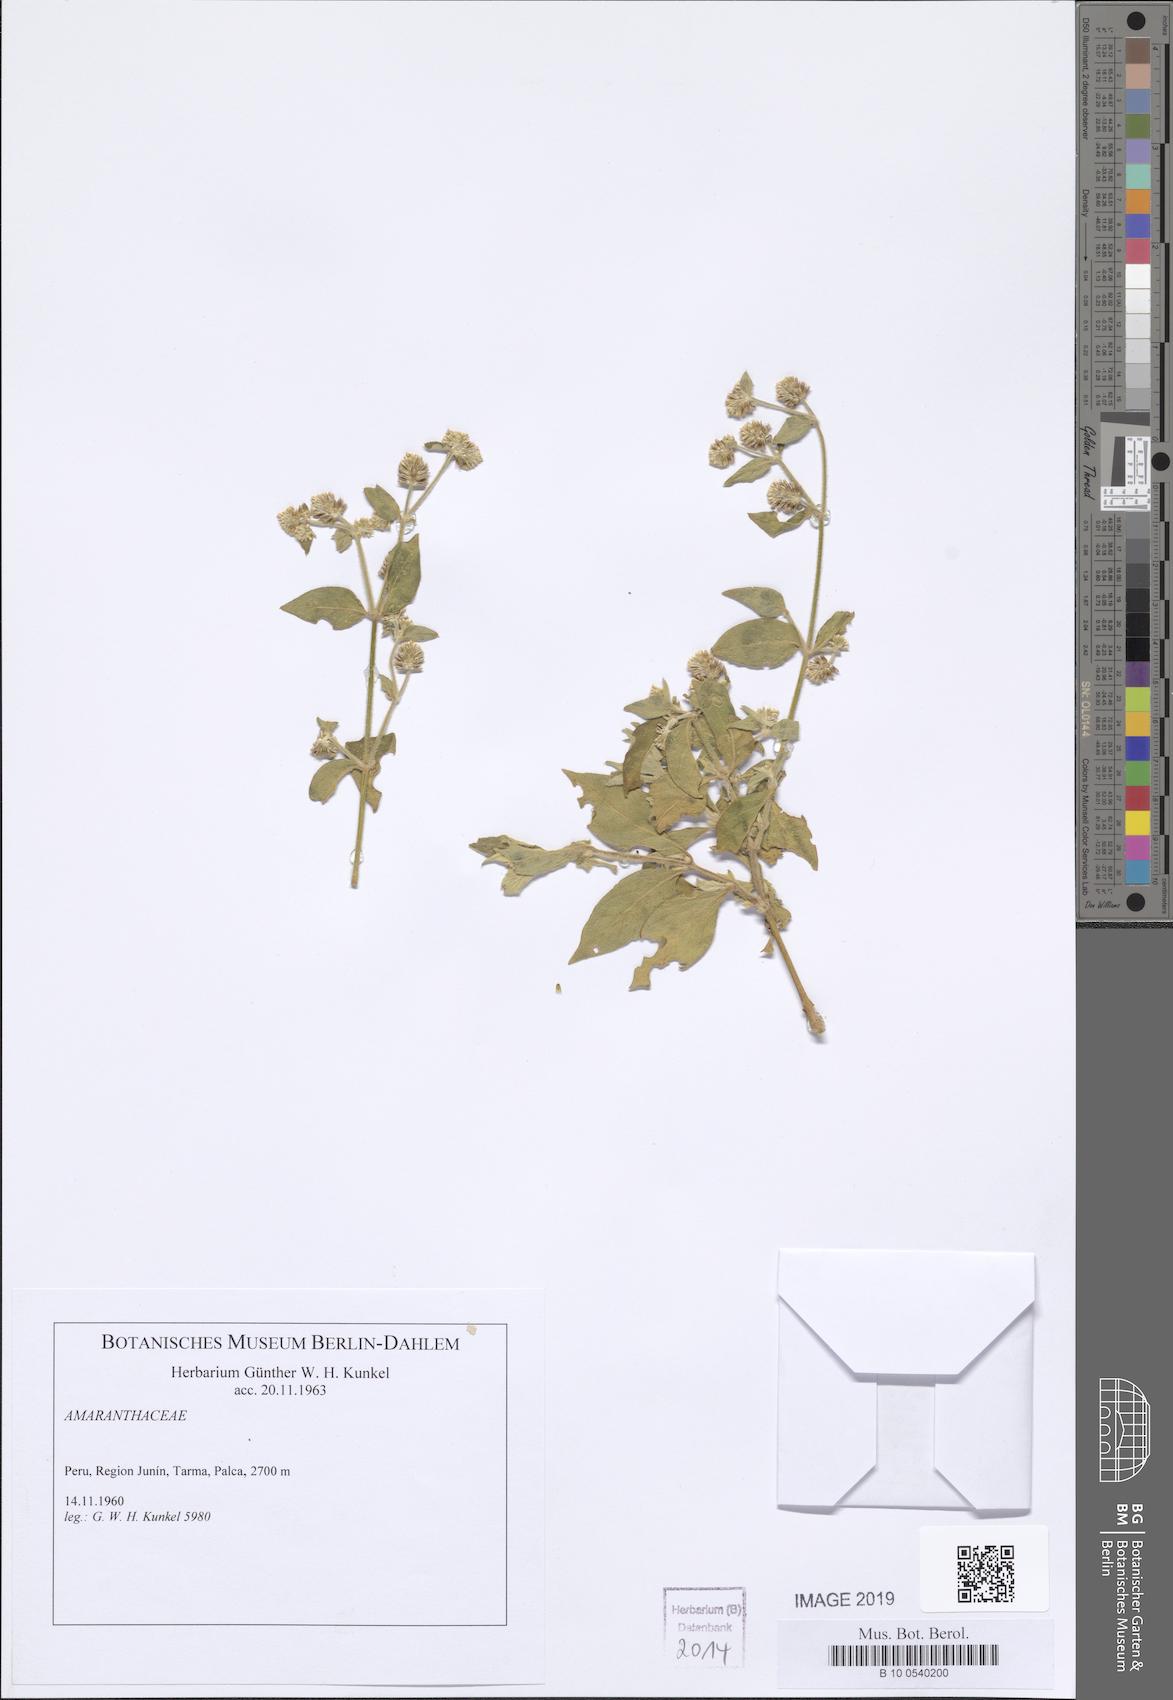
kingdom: Plantae
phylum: Tracheophyta
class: Magnoliopsida
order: Caryophyllales
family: Amaranthaceae
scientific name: Amaranthaceae
